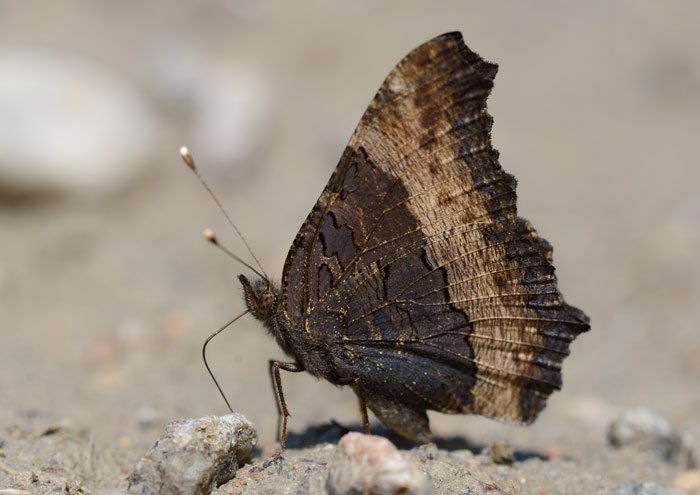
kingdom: Animalia
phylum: Arthropoda
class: Insecta
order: Lepidoptera
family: Nymphalidae
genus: Aglais
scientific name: Aglais milberti
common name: Milbert's Tortoiseshell
